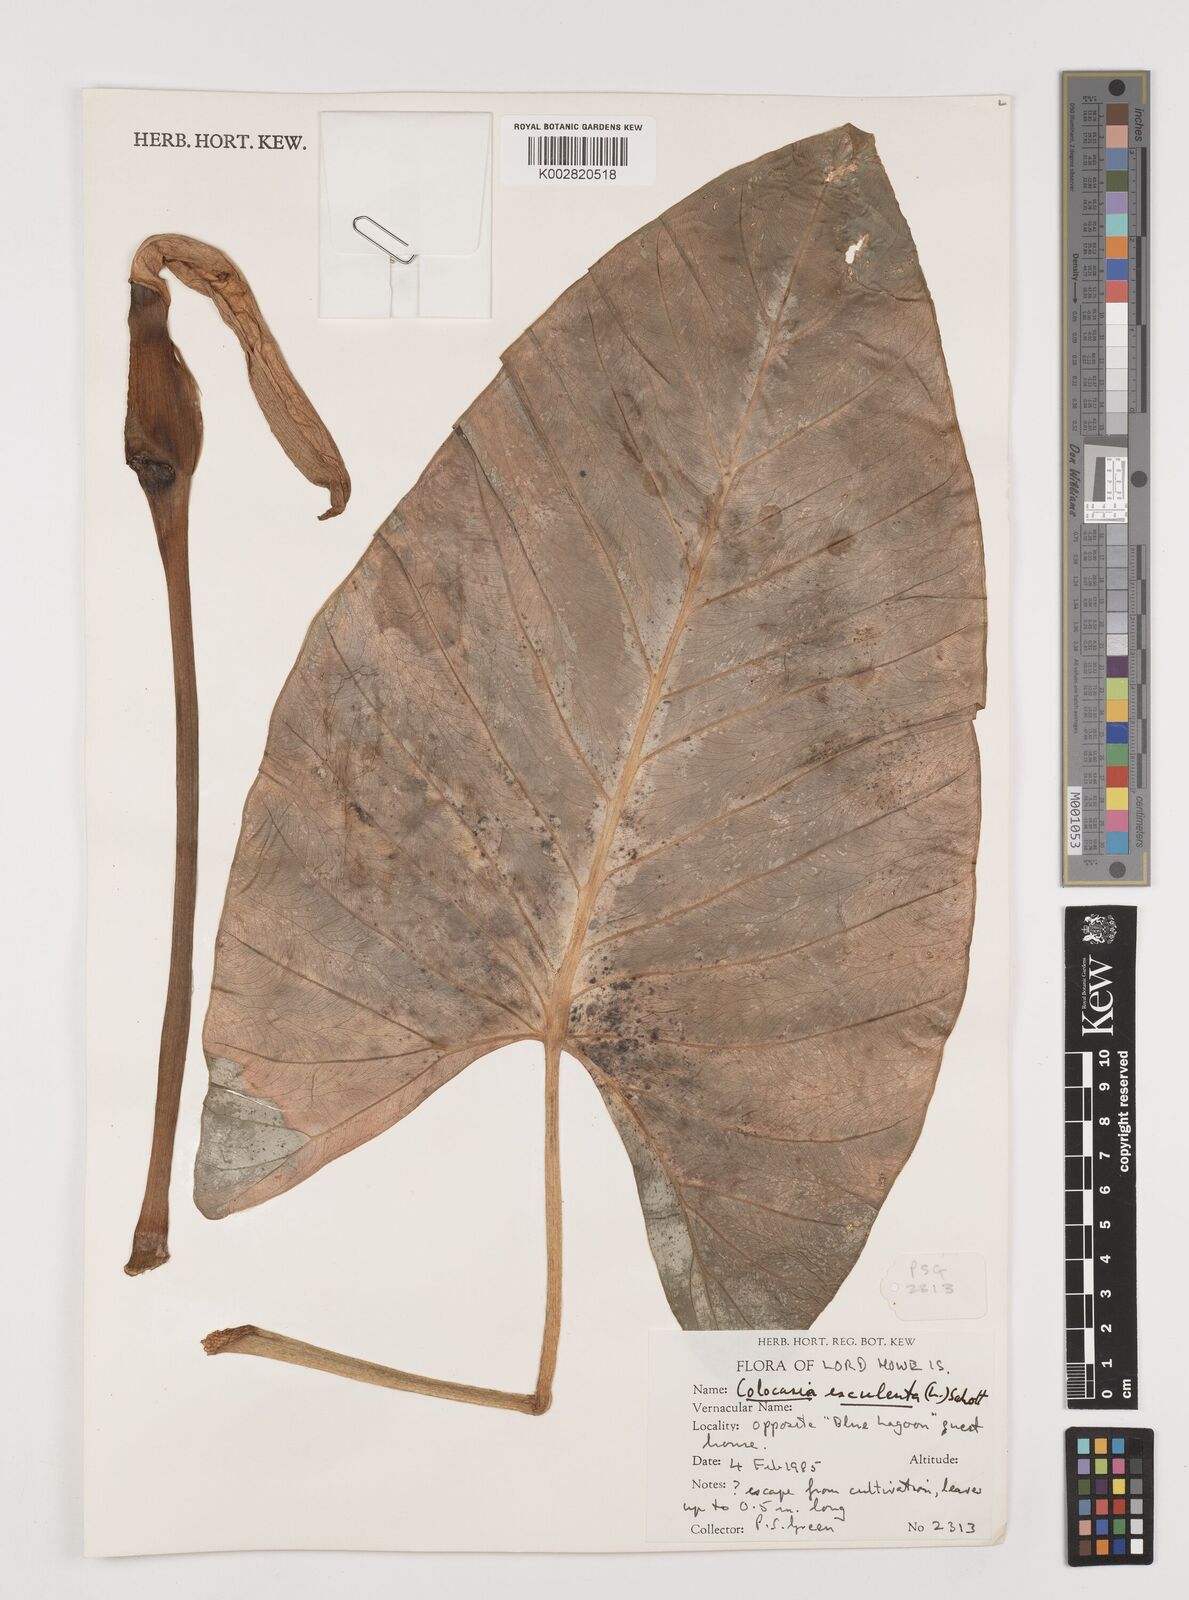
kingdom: Plantae
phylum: Tracheophyta
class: Liliopsida
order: Alismatales
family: Araceae
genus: Colocasia
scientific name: Colocasia esculenta
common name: Taro
